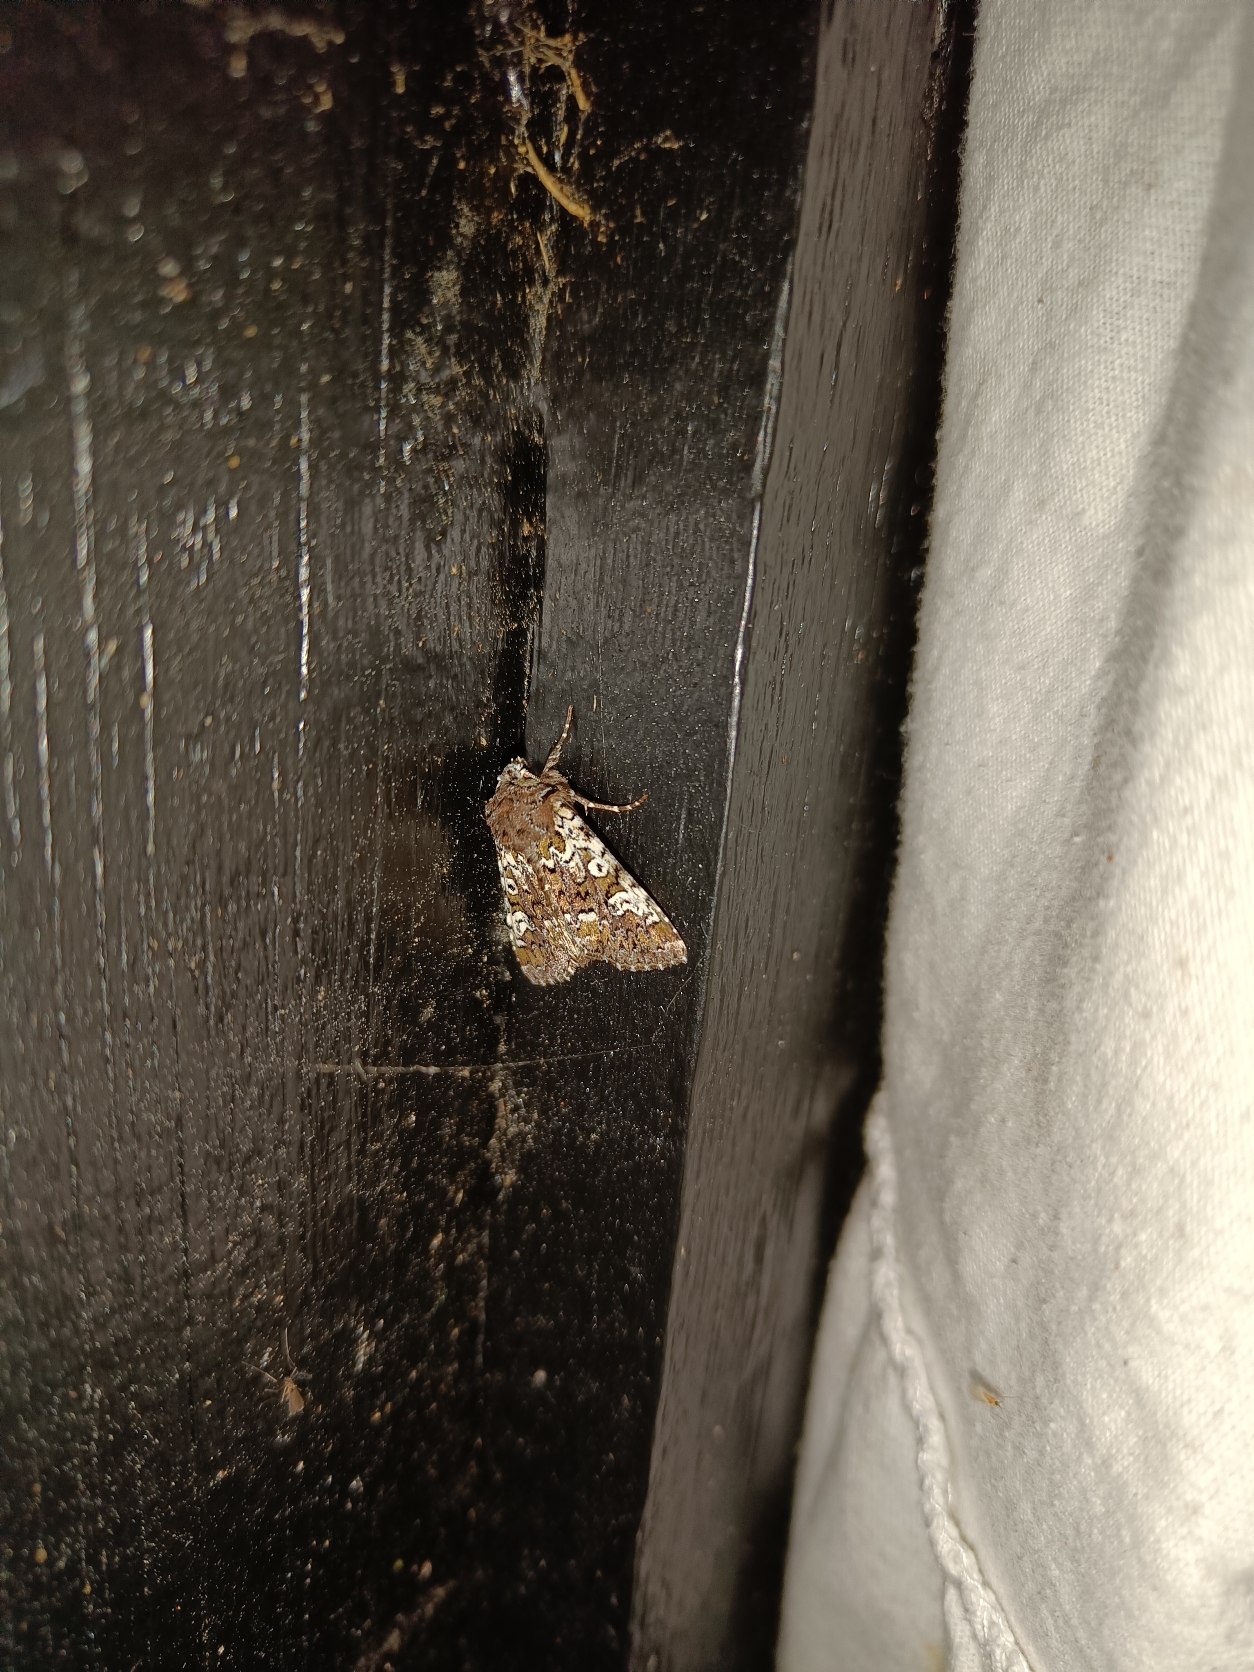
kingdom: Animalia
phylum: Arthropoda
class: Insecta
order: Lepidoptera
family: Noctuidae
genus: Crypsedra
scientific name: Crypsedra gemmea
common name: Smykke-stængelugle
